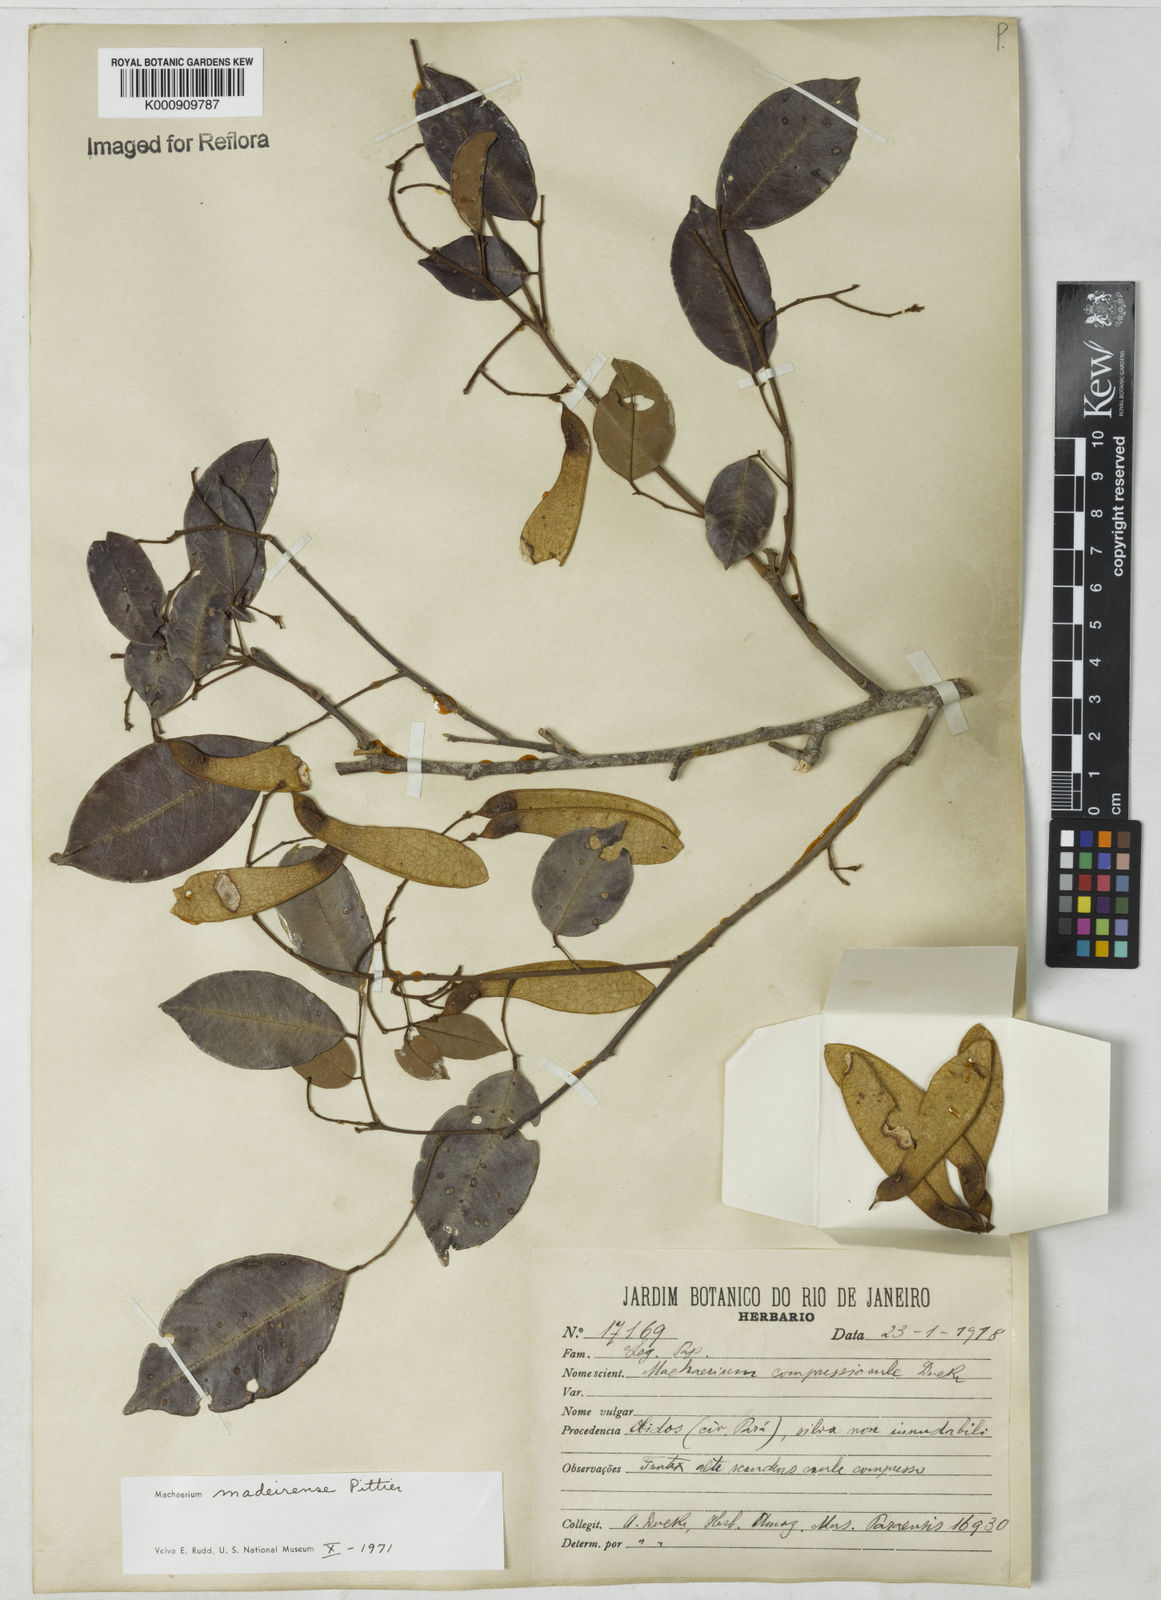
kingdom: Plantae
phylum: Tracheophyta
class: Magnoliopsida
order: Fabales
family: Fabaceae
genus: Machaerium
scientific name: Machaerium madeirense
